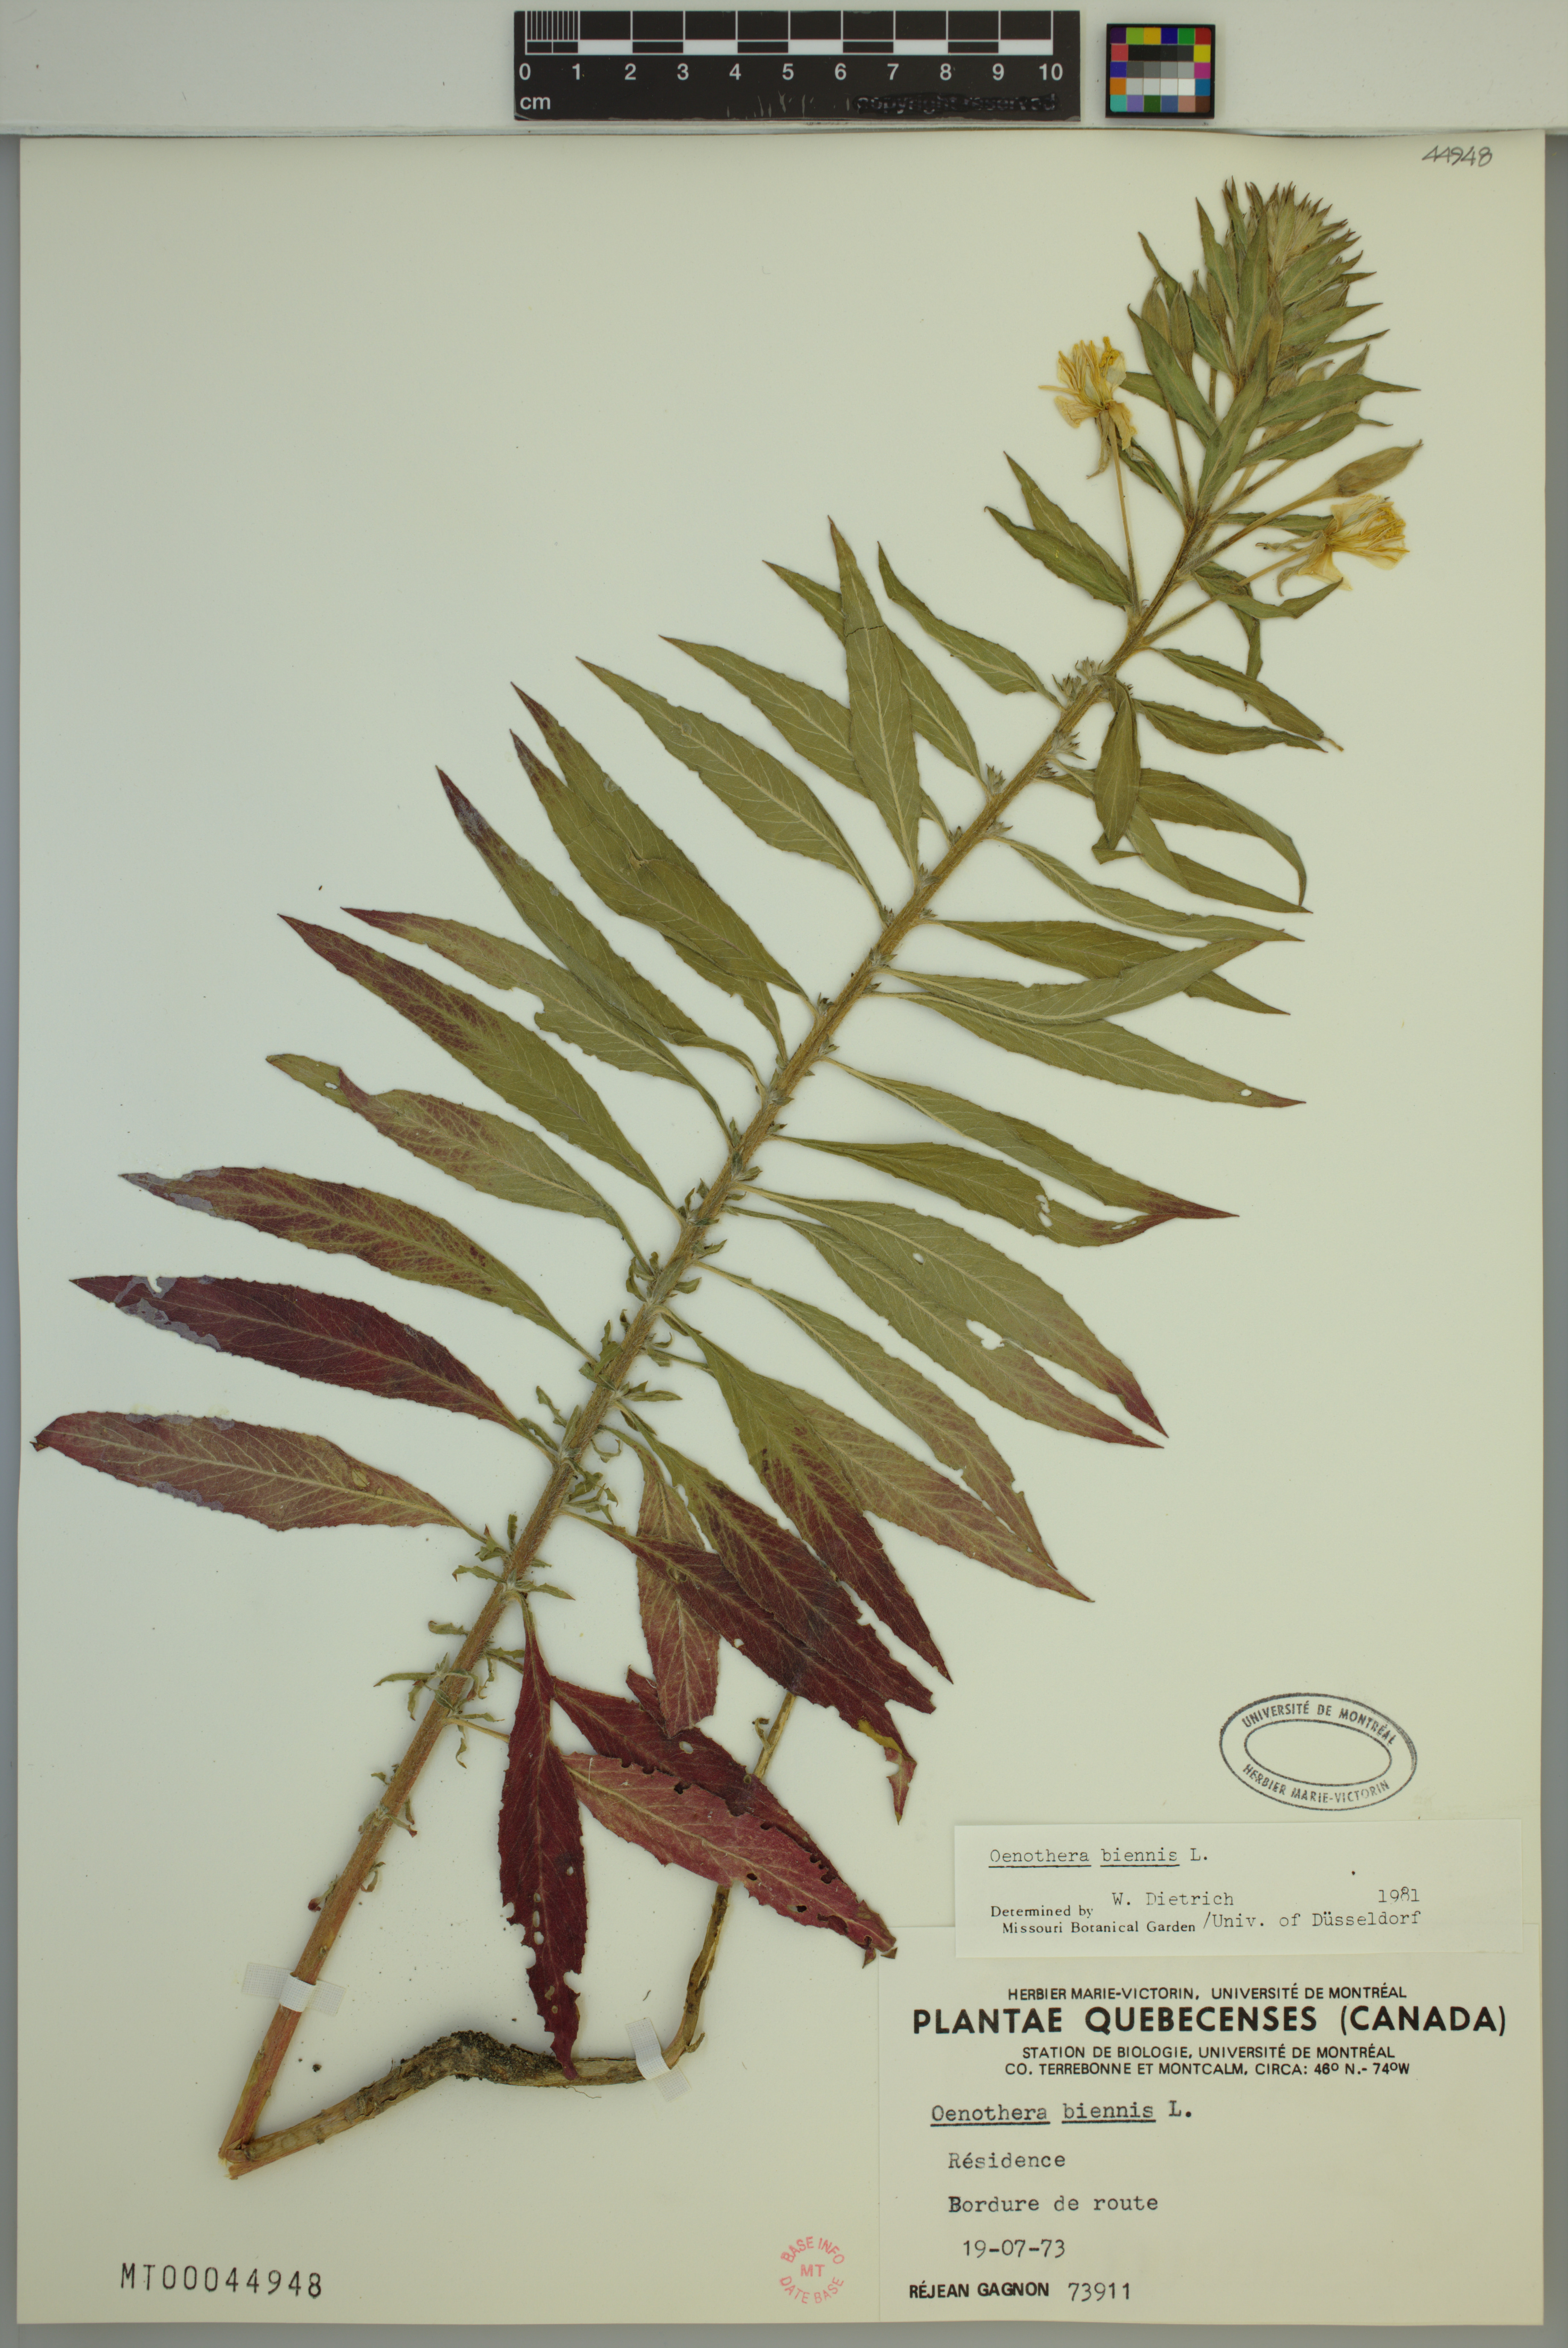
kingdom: Plantae
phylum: Tracheophyta
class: Magnoliopsida
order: Myrtales
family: Onagraceae
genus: Oenothera
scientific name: Oenothera biennis
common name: Common evening-primrose
